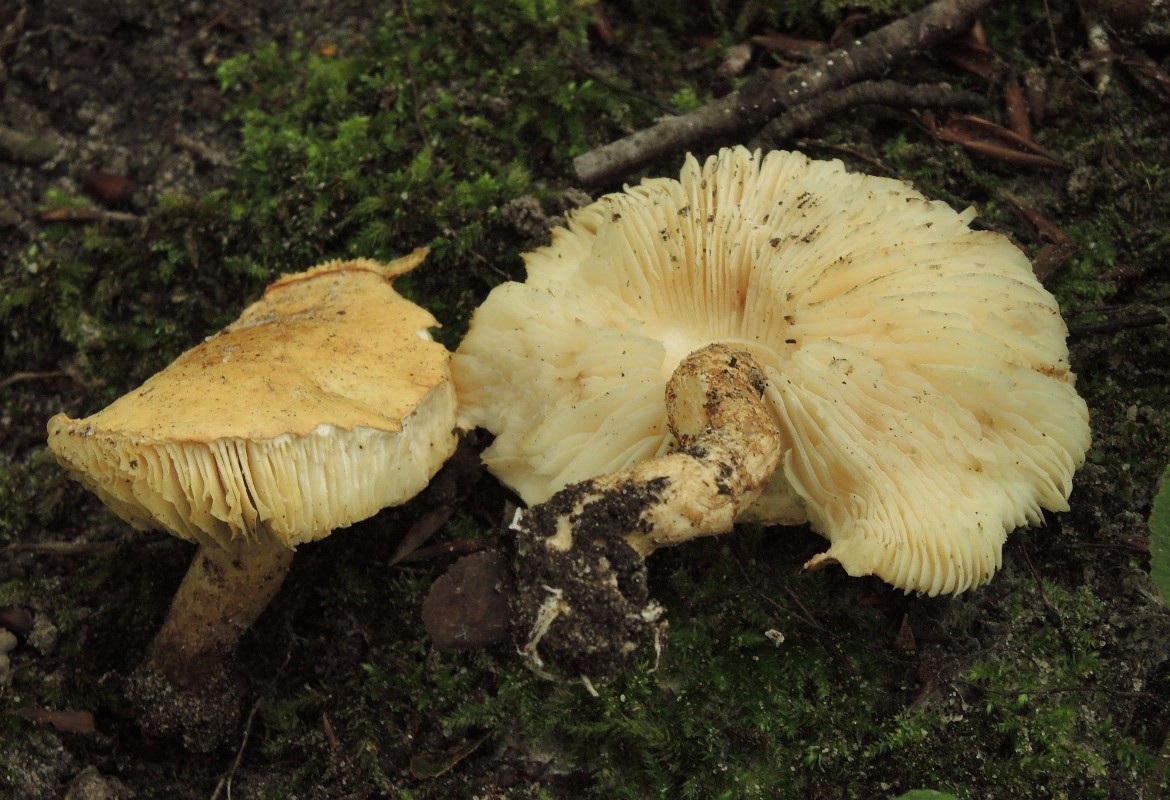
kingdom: Fungi
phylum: Basidiomycota
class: Agaricomycetes
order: Agaricales
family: Agaricaceae
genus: Chamaemyces
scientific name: Chamaemyces fracidus
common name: dråbehat
